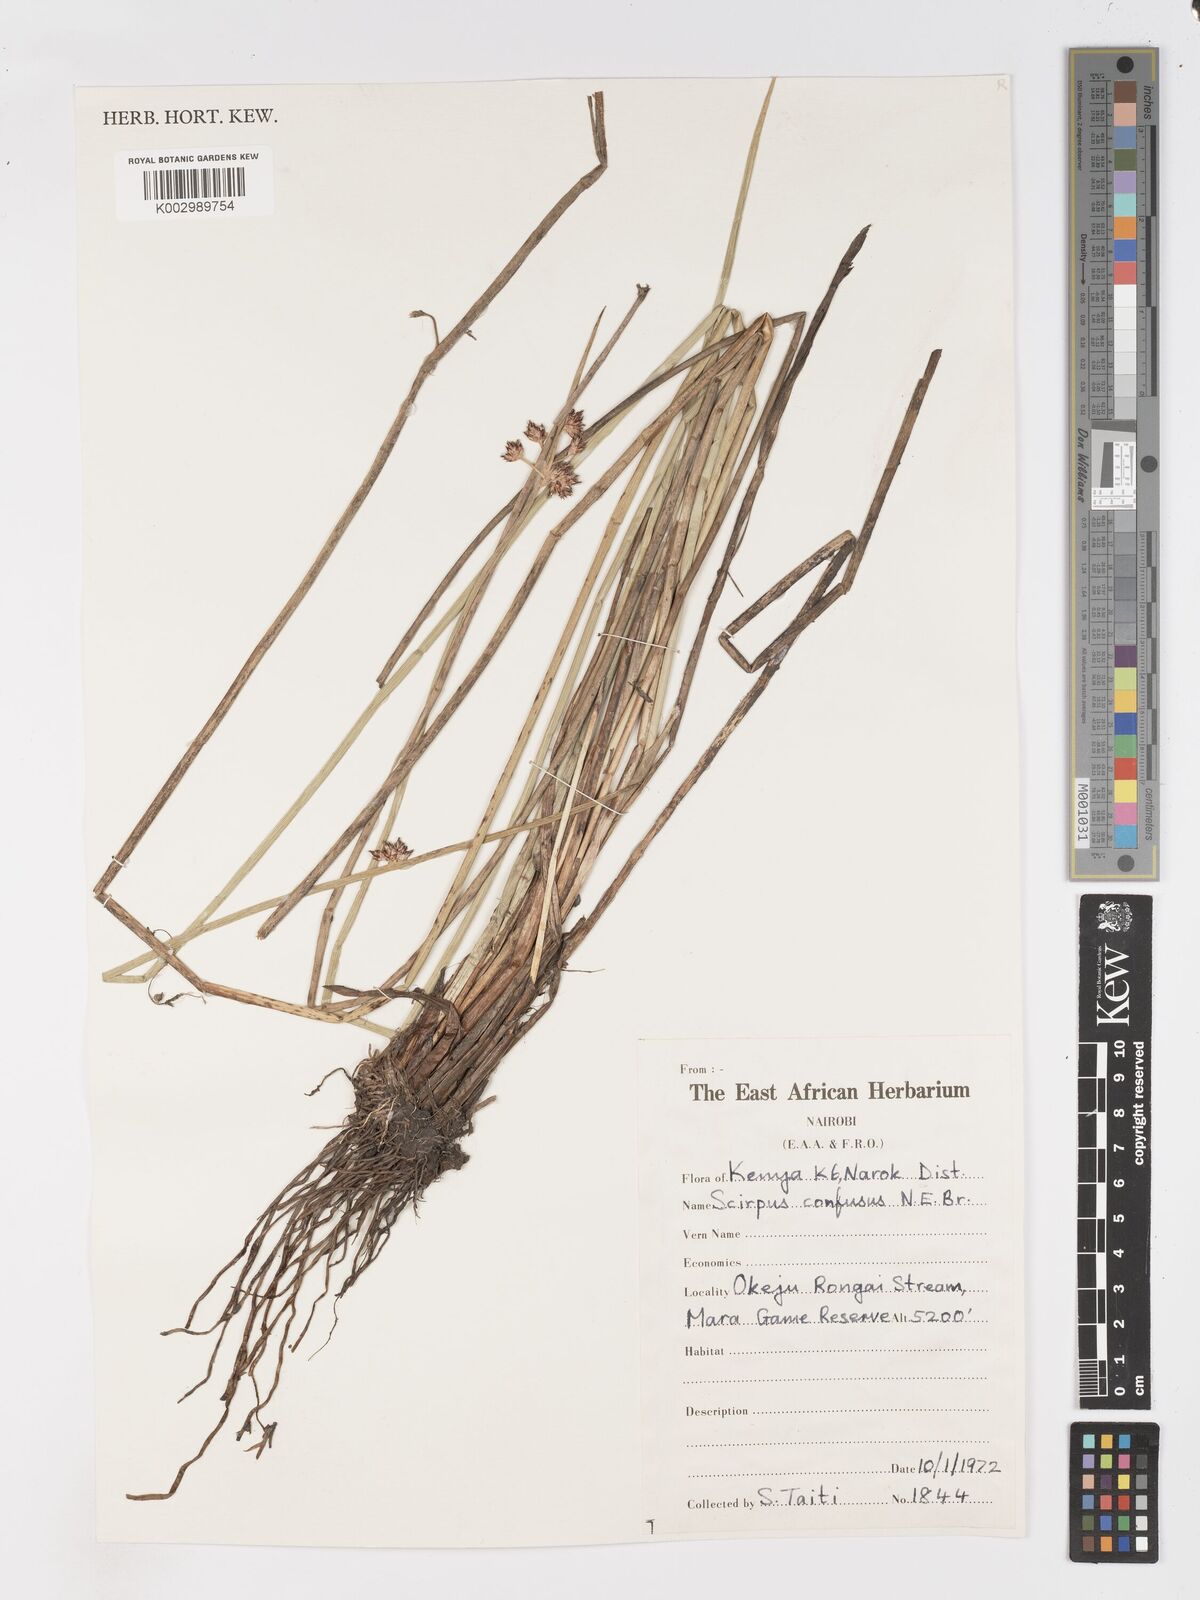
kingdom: Plantae
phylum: Tracheophyta
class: Liliopsida
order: Poales
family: Cyperaceae
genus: Schoenoplectiella
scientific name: Schoenoplectiella confusa
